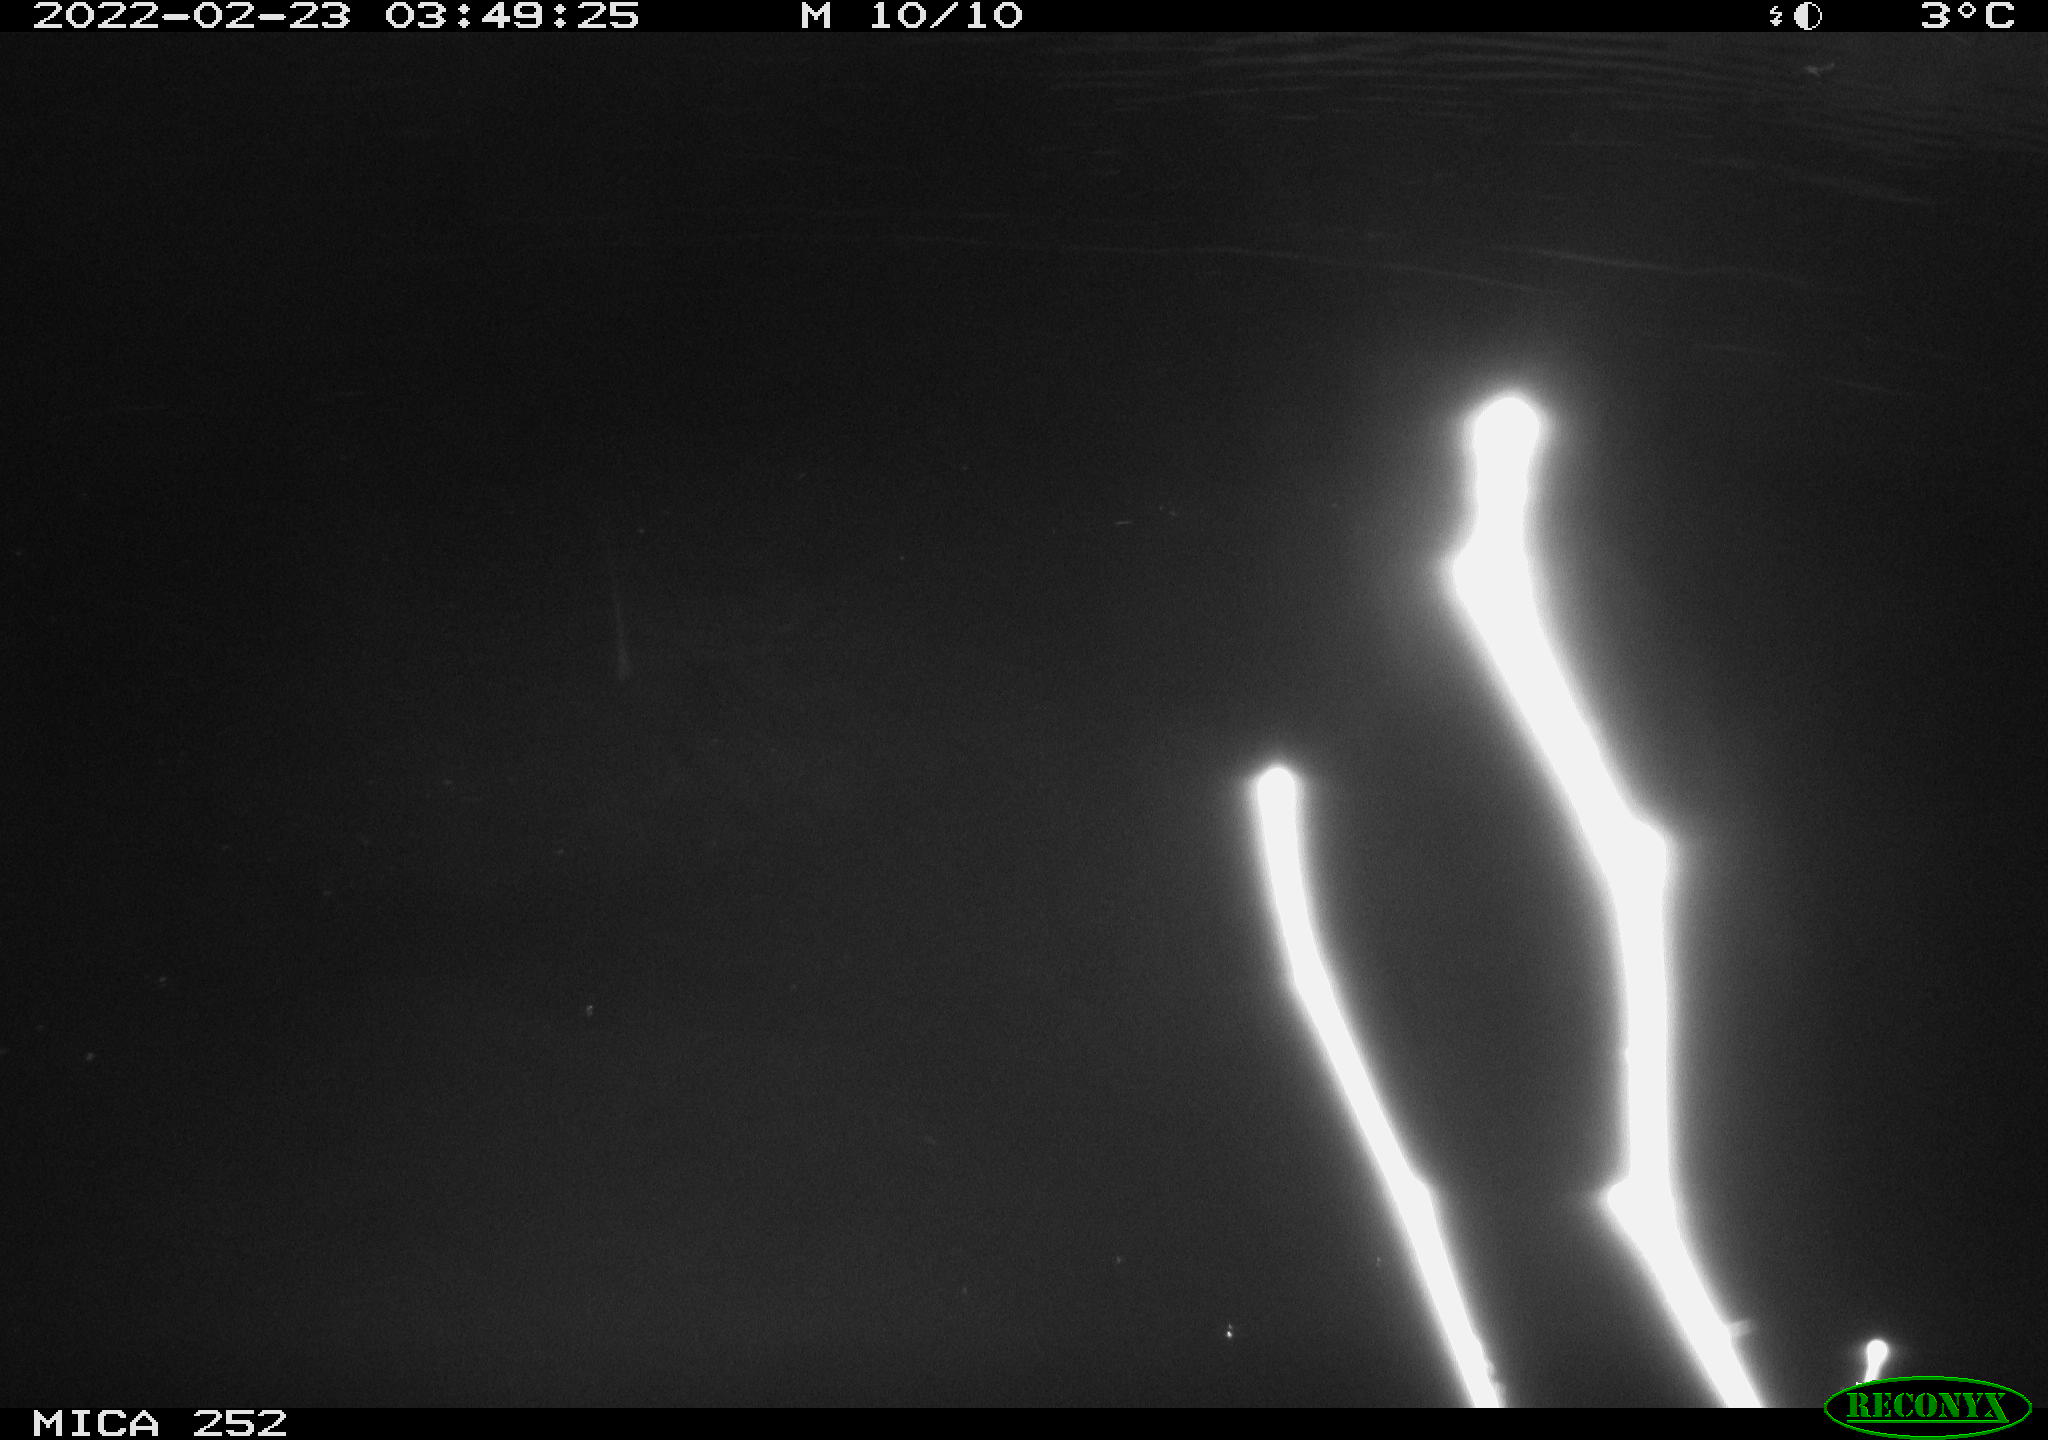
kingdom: Animalia
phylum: Chordata
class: Mammalia
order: Rodentia
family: Castoridae
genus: Castor
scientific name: Castor fiber
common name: Eurasian beaver
